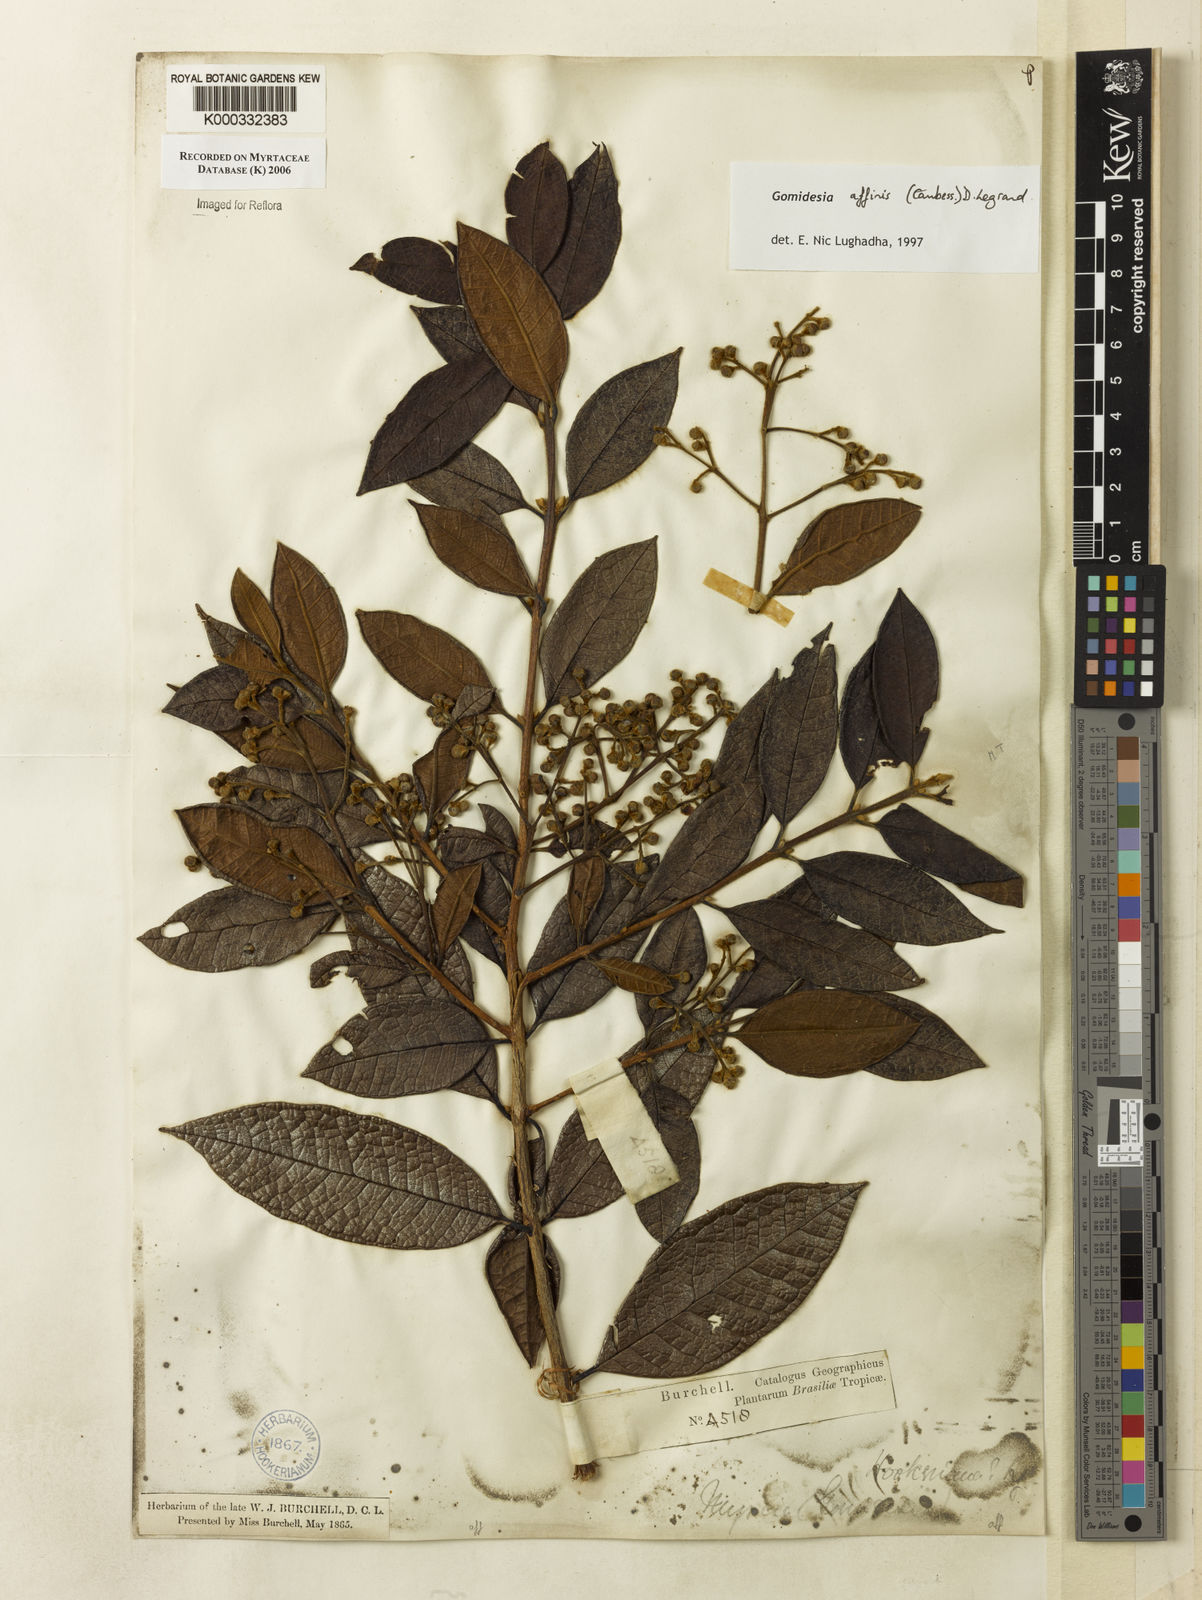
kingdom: Plantae
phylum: Tracheophyta
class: Magnoliopsida
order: Myrtales
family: Myrtaceae
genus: Myrcia
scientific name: Myrcia hebepetala
